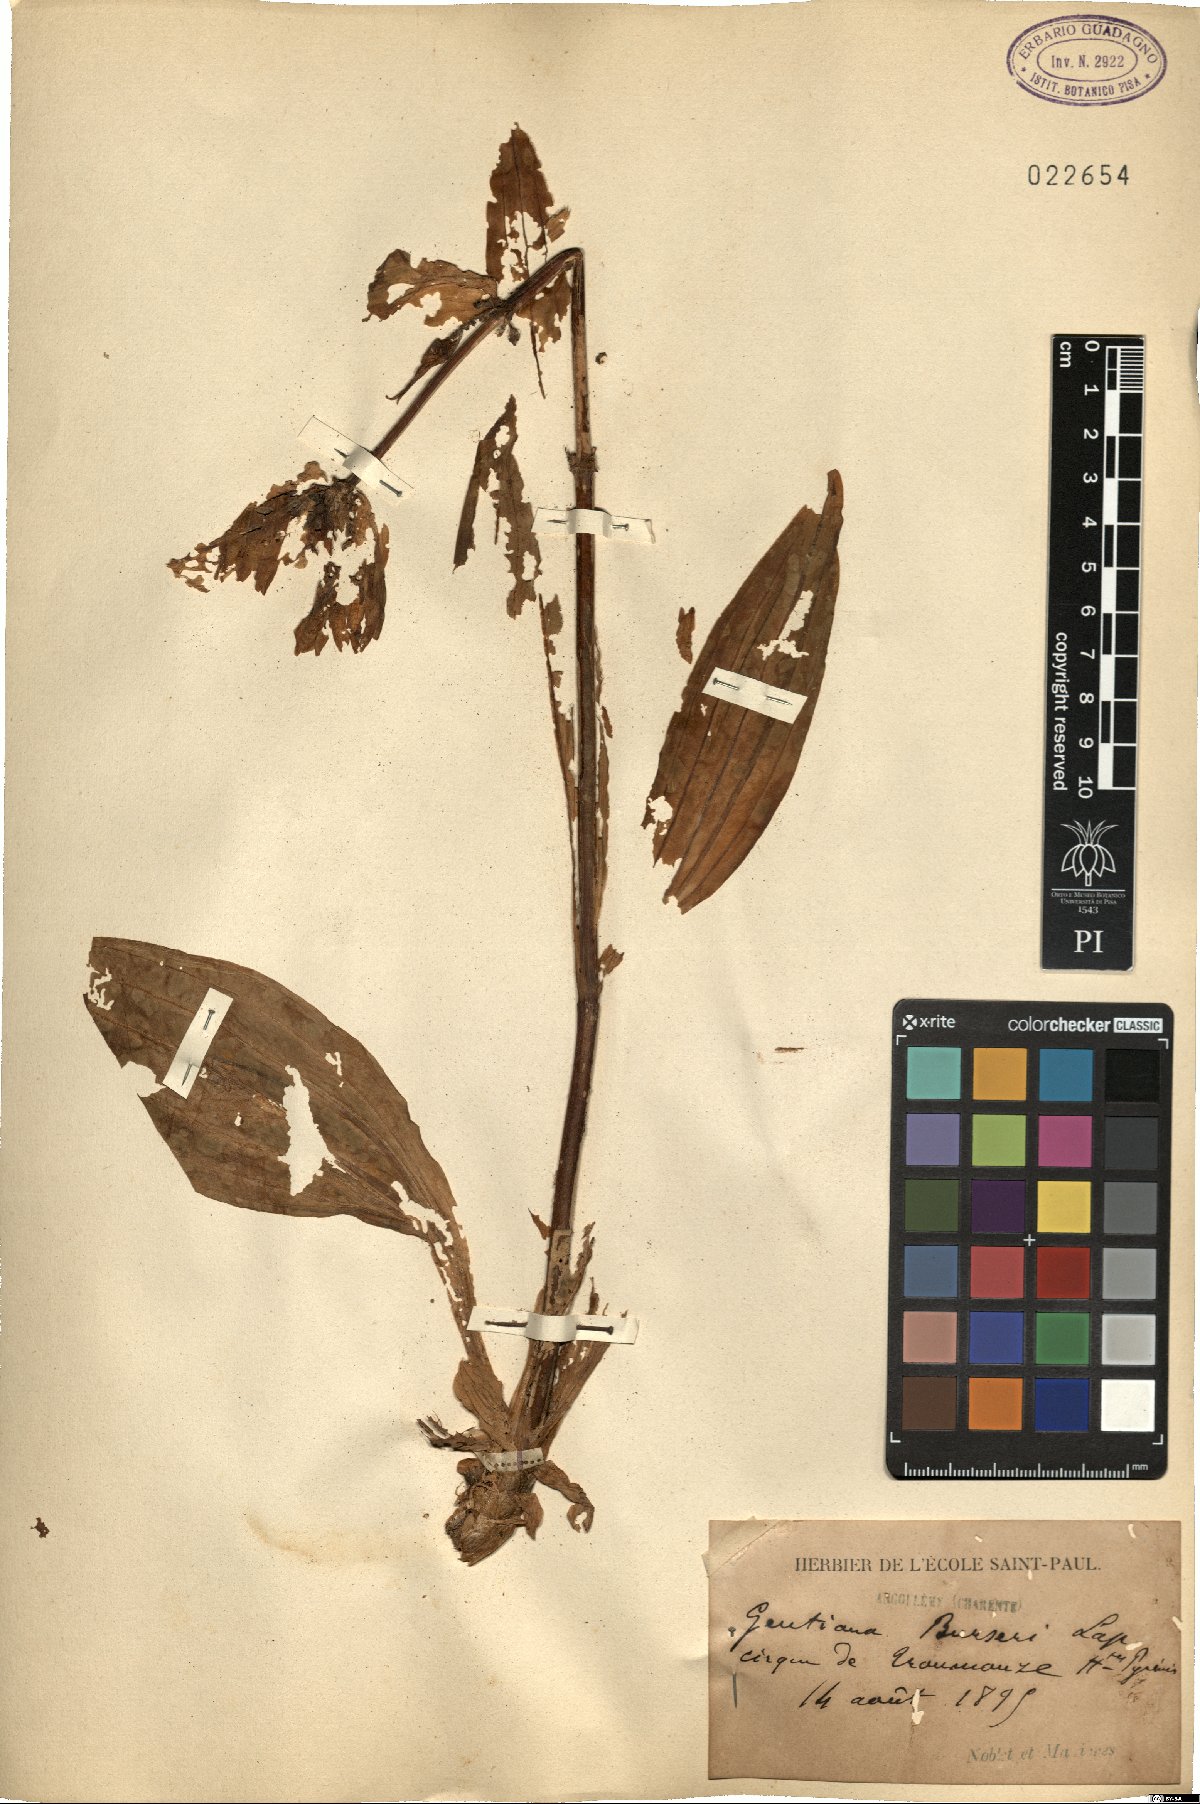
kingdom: Plantae
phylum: Tracheophyta
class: Magnoliopsida
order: Gentianales
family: Gentianaceae
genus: Gentiana
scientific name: Gentiana burseri
